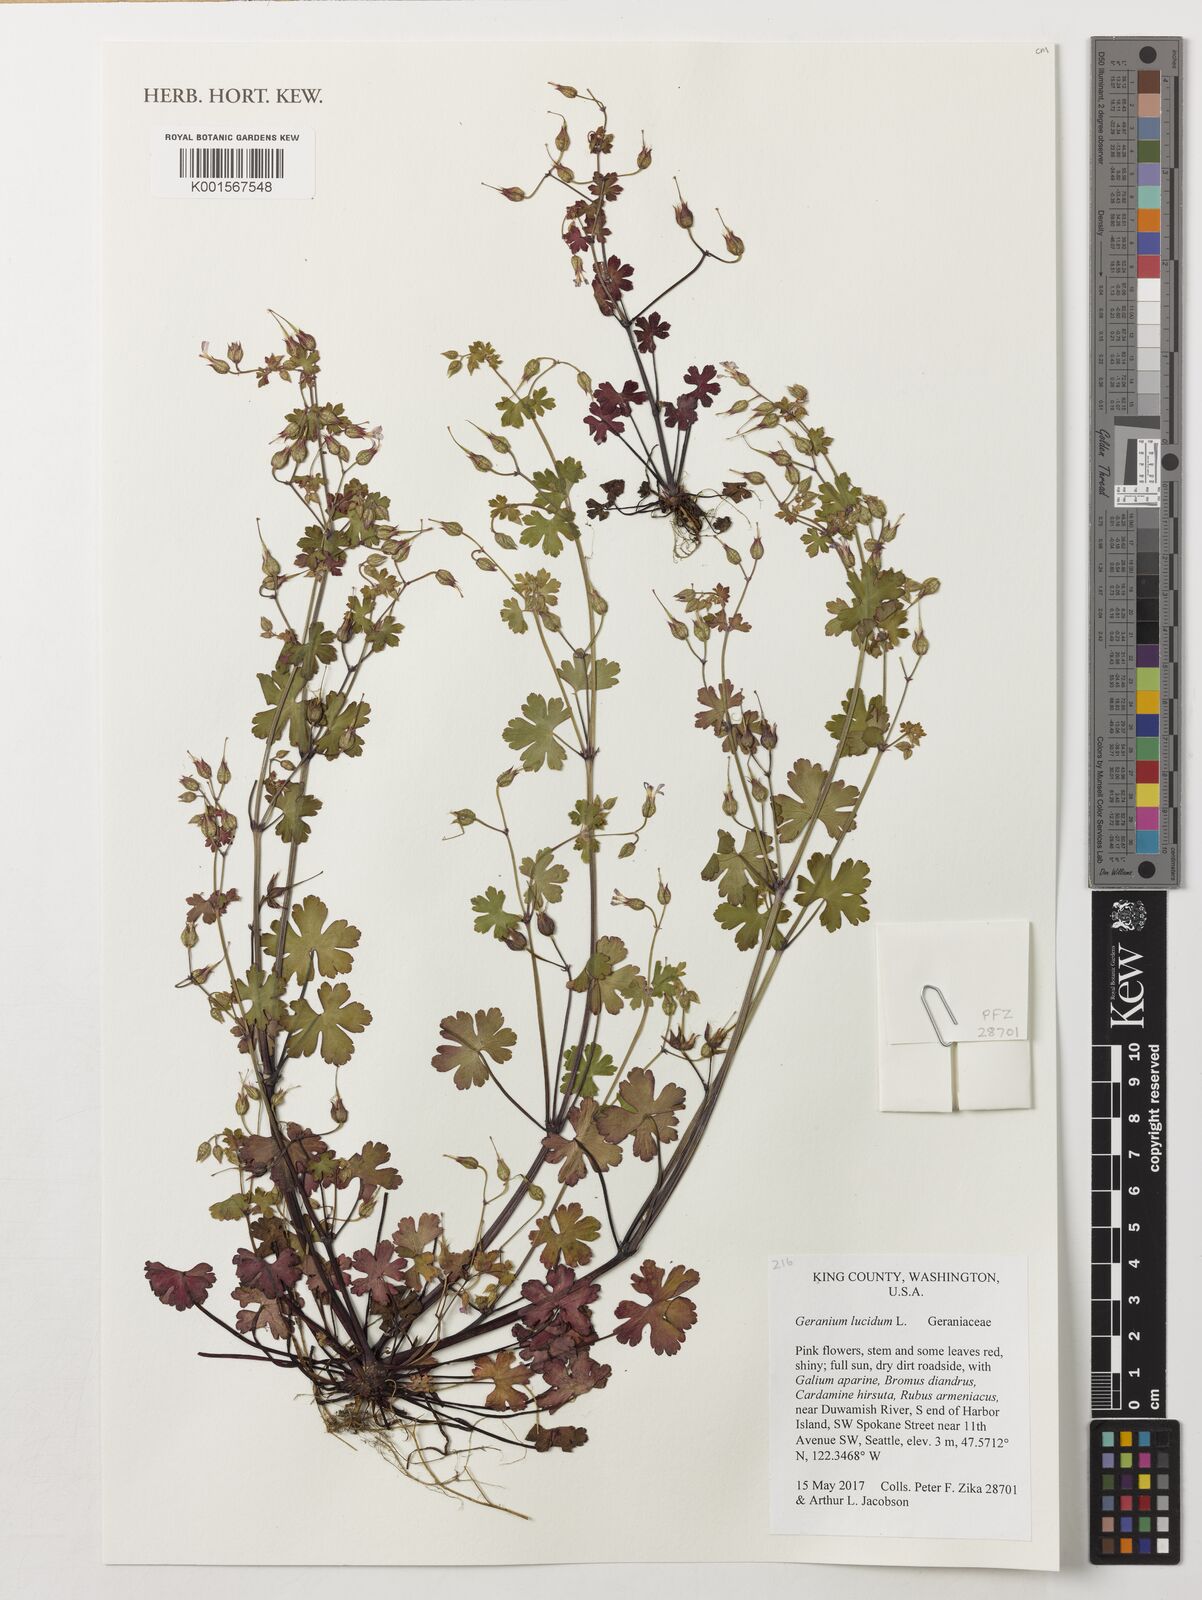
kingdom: Plantae
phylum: Tracheophyta
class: Magnoliopsida
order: Geraniales
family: Geraniaceae
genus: Geranium
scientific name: Geranium lucidum
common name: Shining crane's-bill
